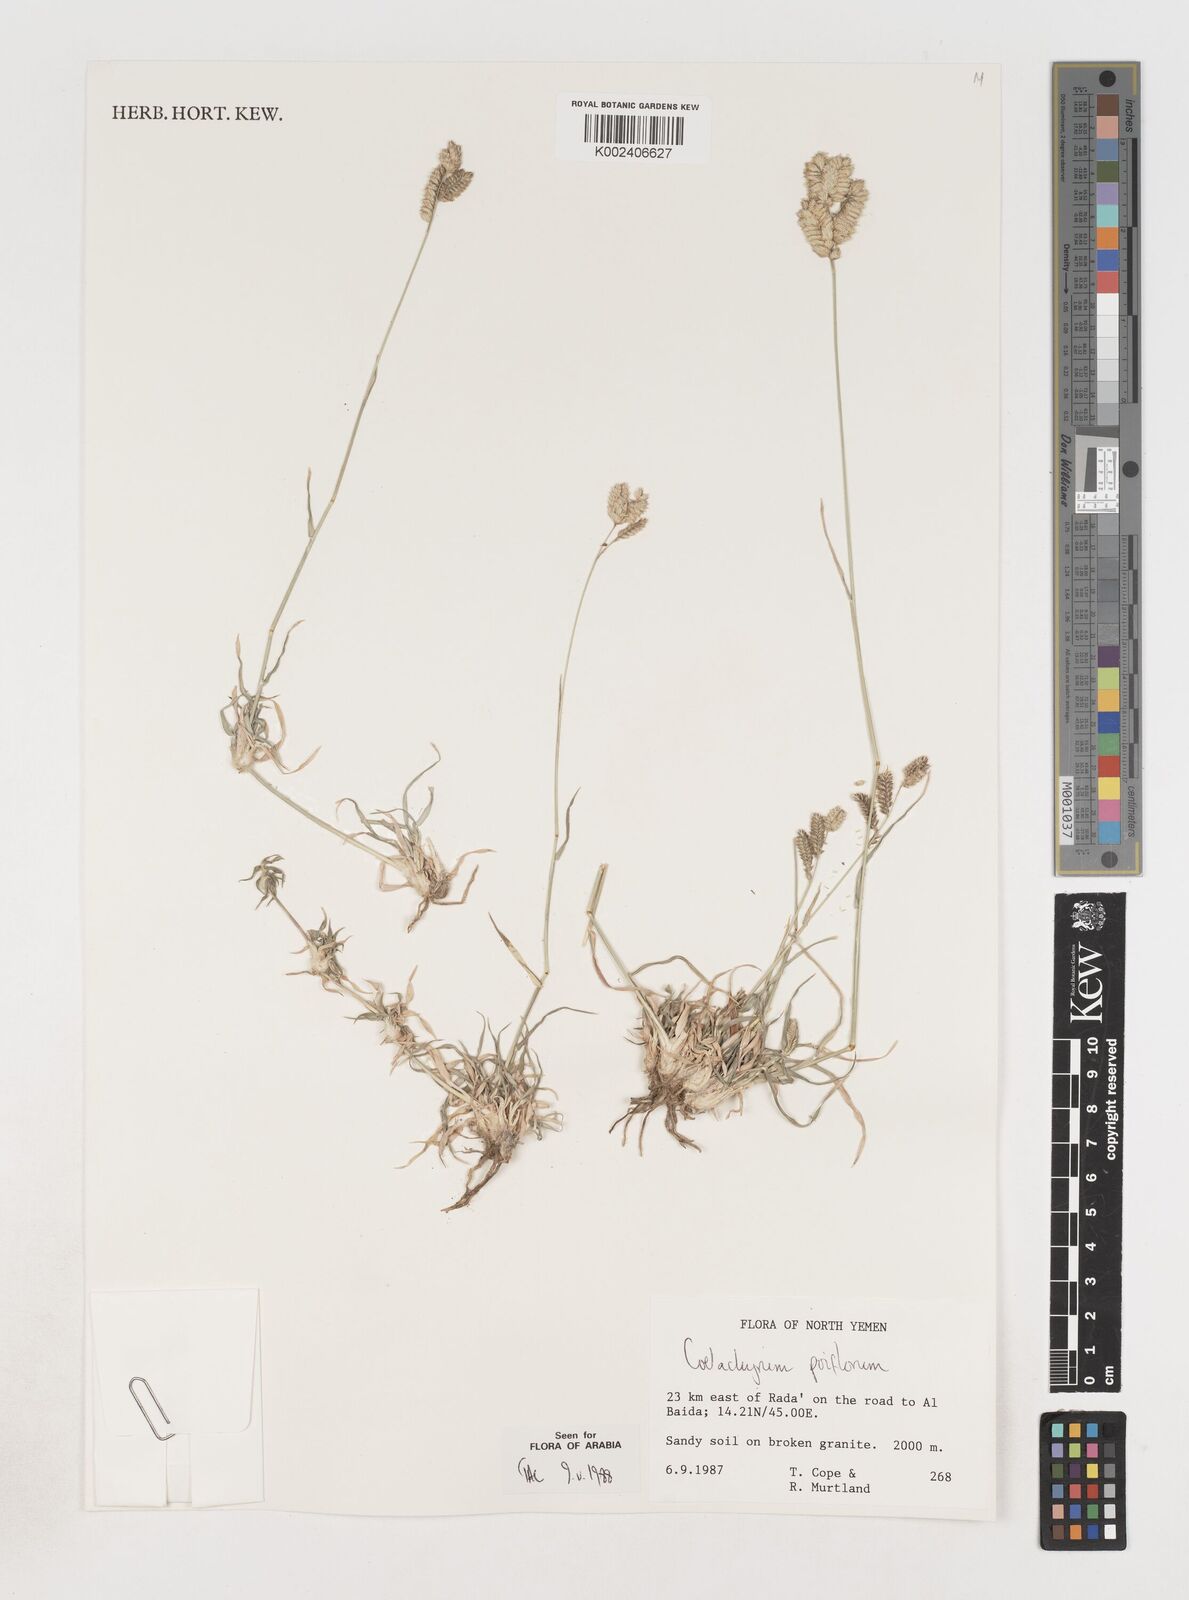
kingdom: Plantae
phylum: Tracheophyta
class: Liliopsida
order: Poales
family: Poaceae
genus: Coelachyrum
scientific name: Coelachyrum poiflorum
